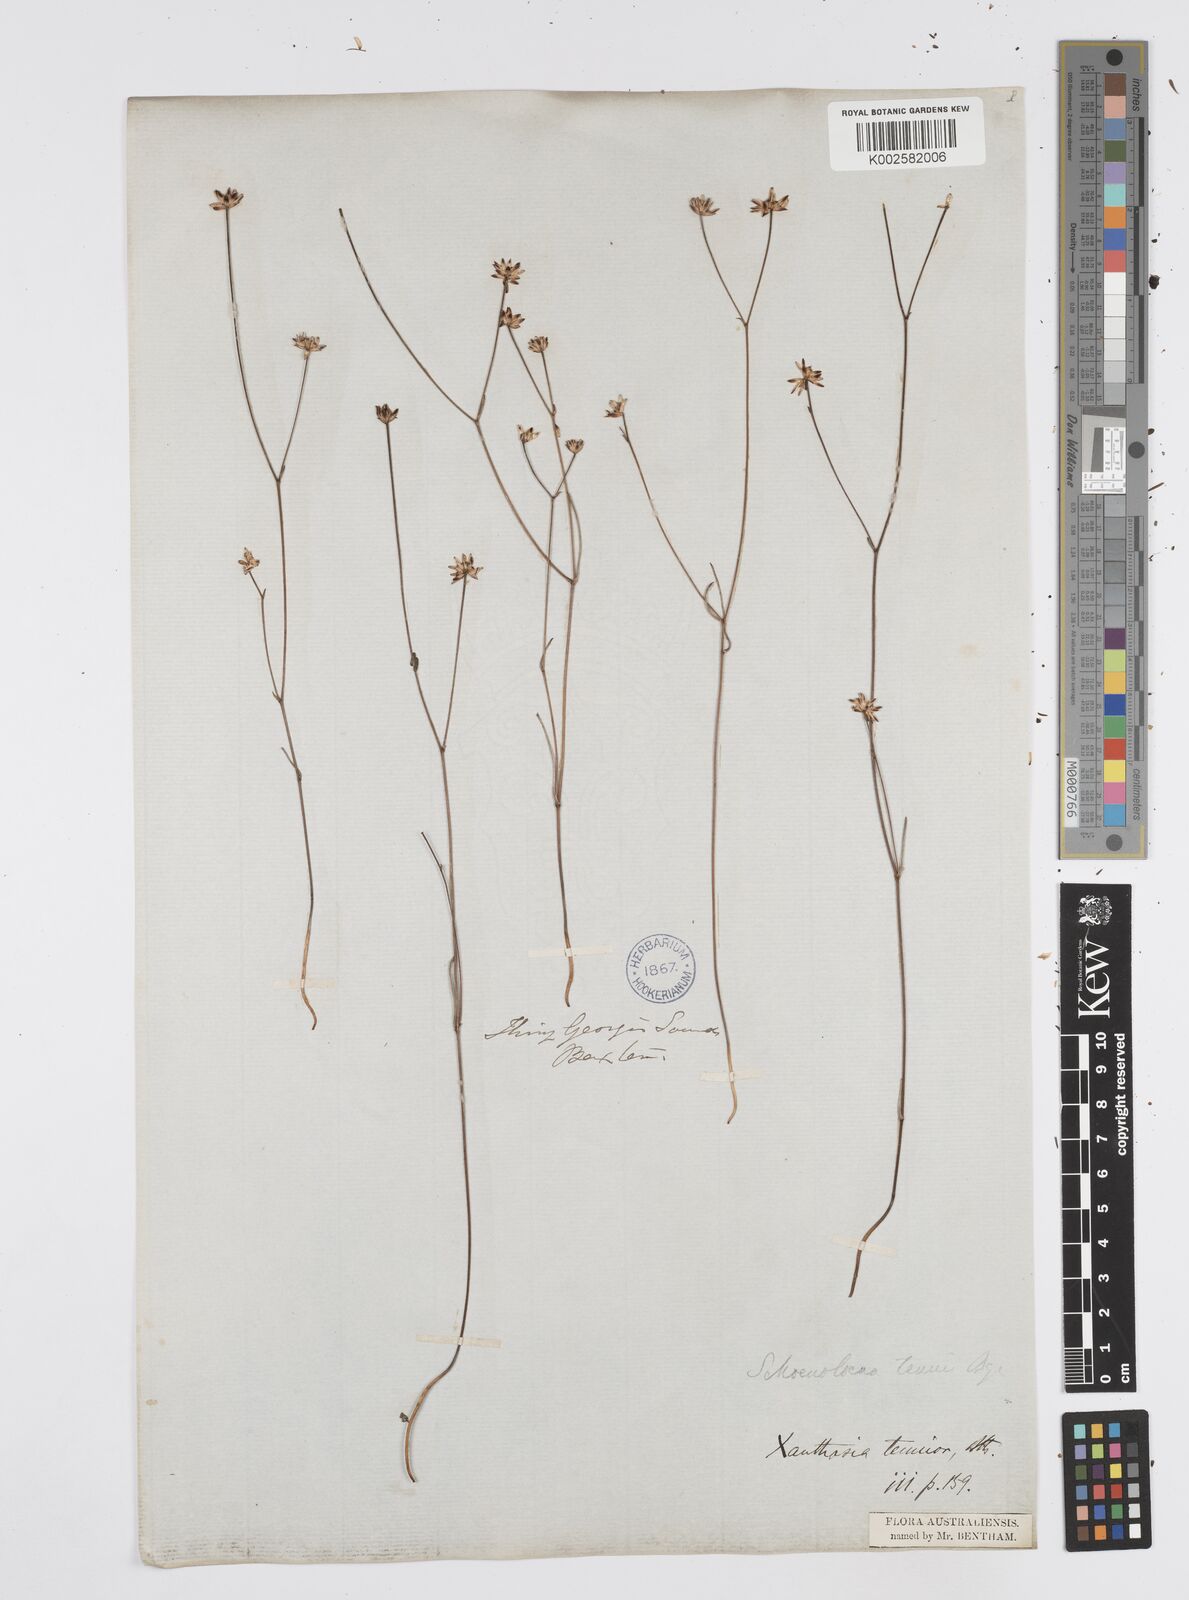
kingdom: Plantae
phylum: Tracheophyta
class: Magnoliopsida
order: Apiales
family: Apiaceae
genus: Schoenolaena
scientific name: Schoenolaena juncea
